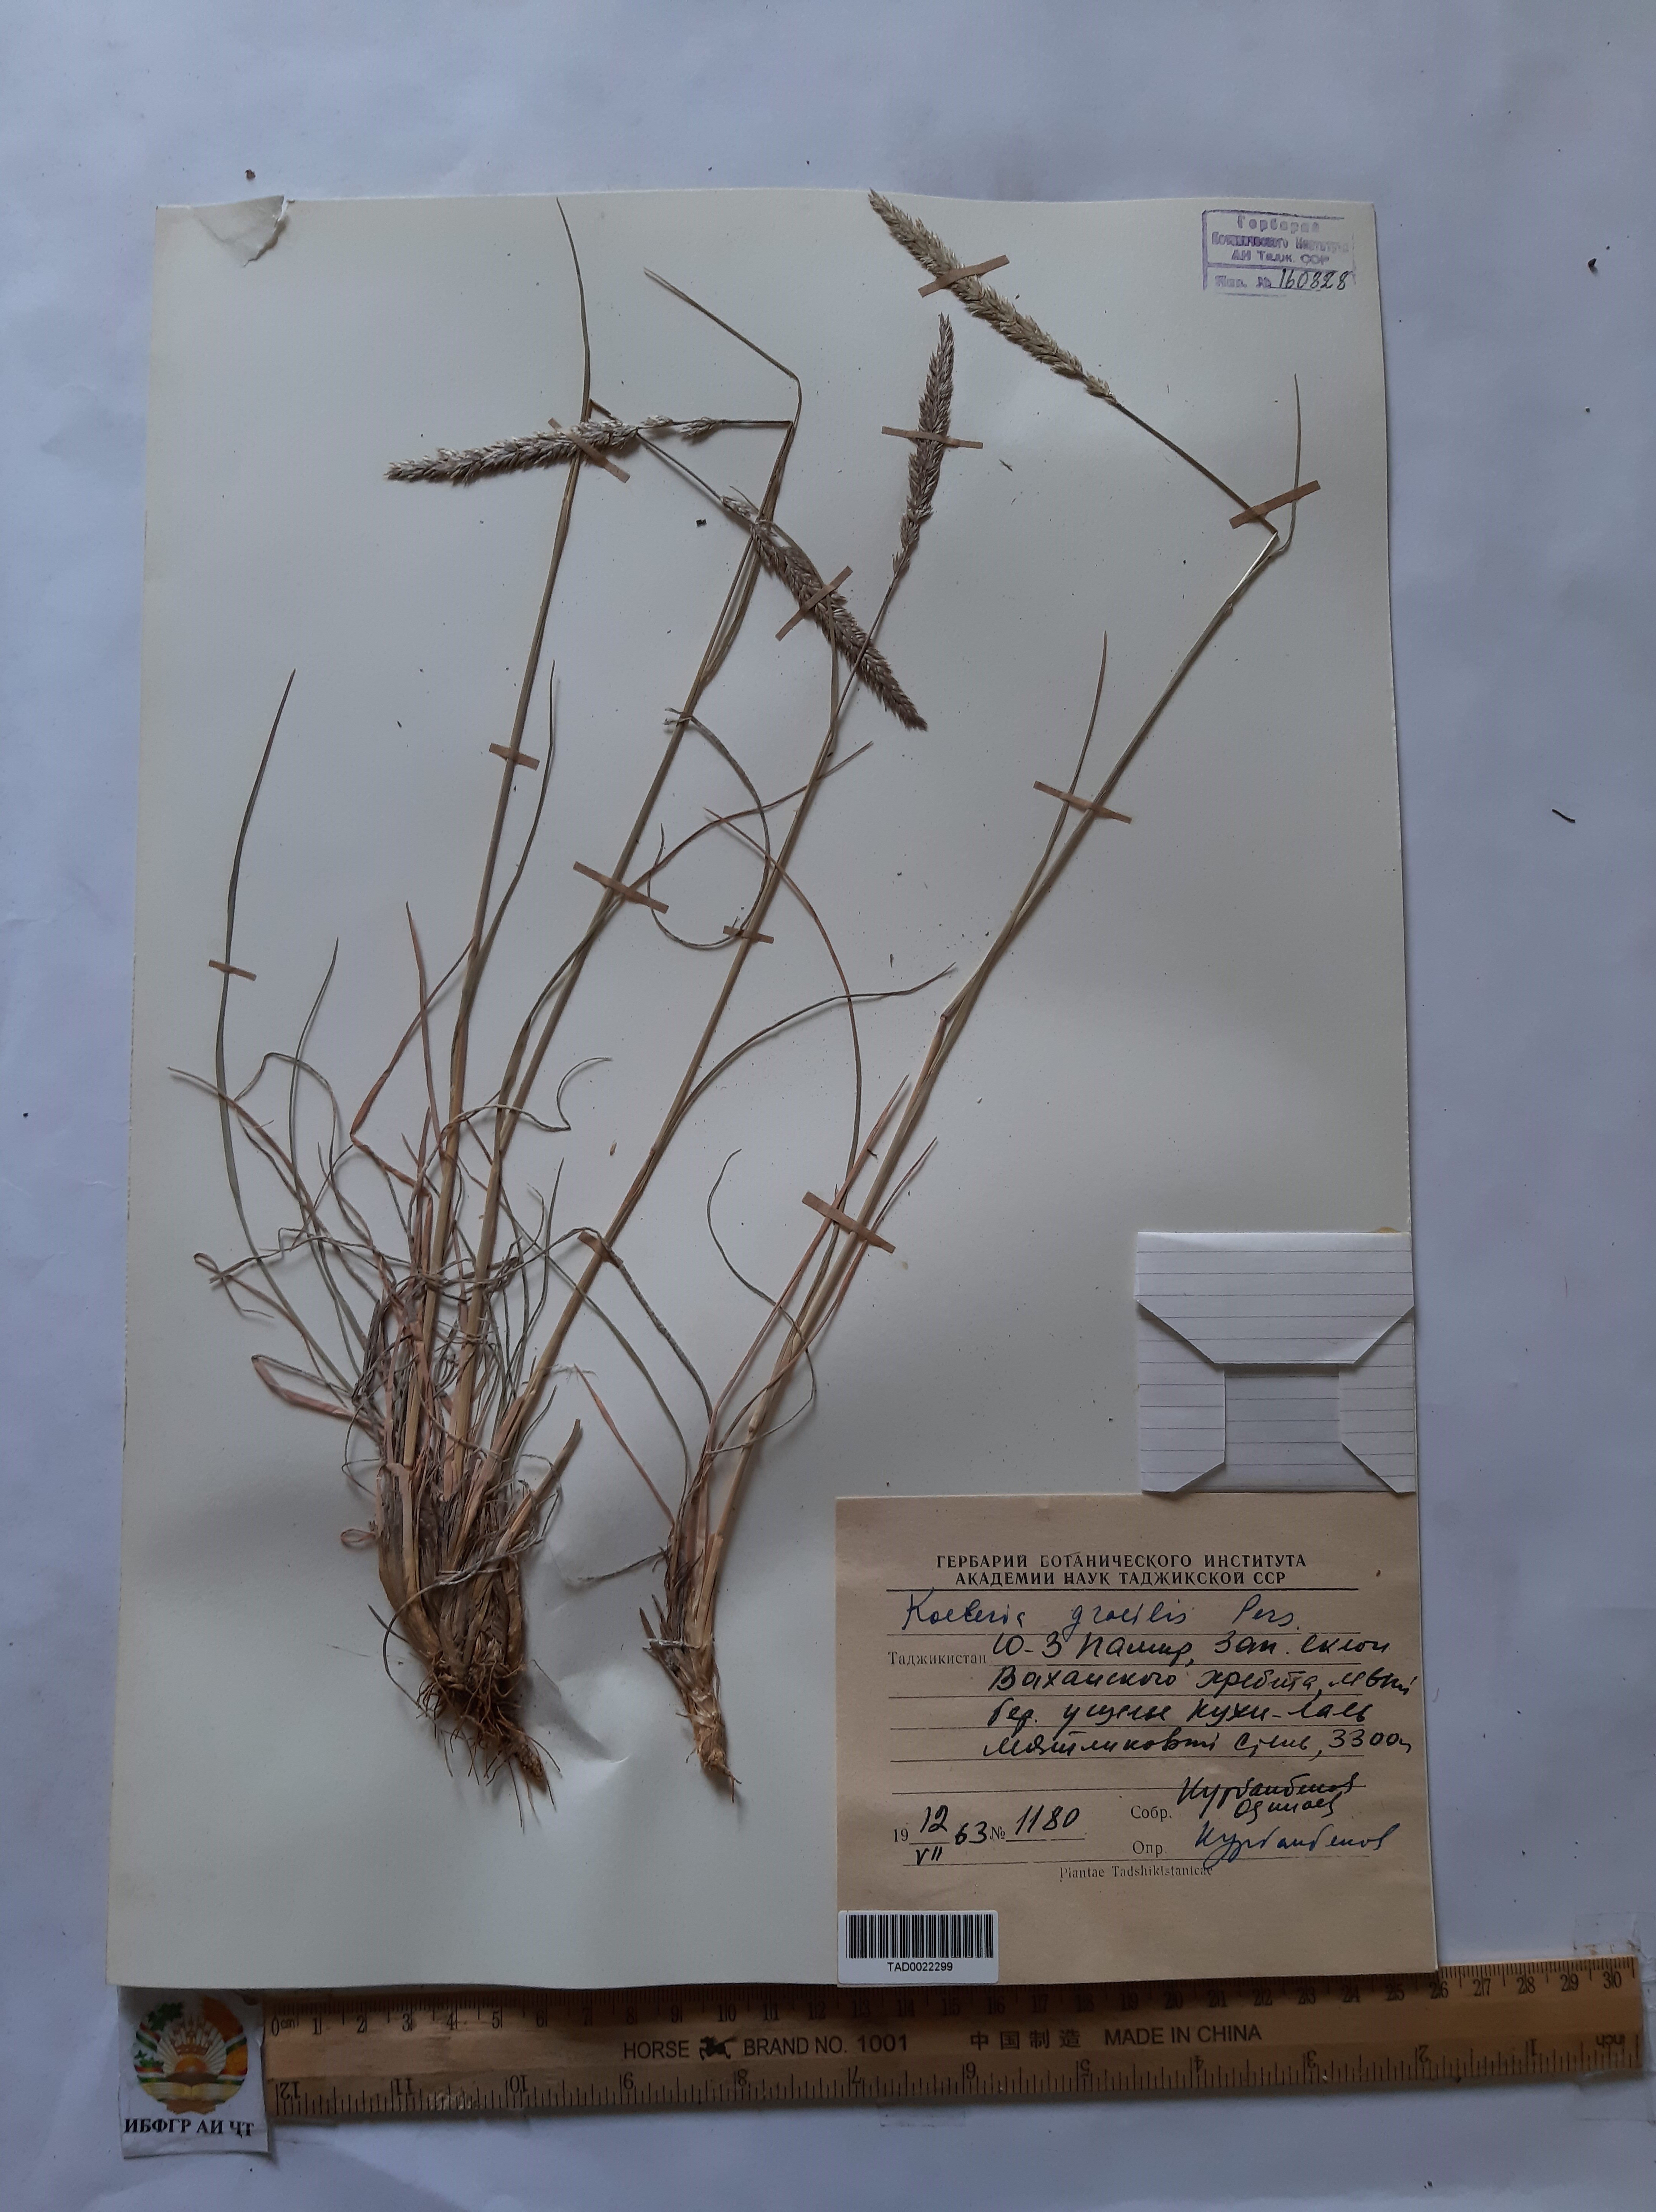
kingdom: Plantae
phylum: Tracheophyta
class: Liliopsida
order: Poales
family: Poaceae
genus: Koeleria
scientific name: Koeleria macrantha
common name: Crested hair-grass
